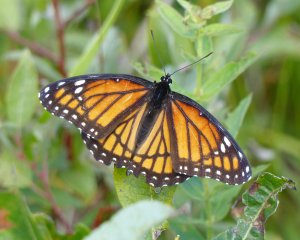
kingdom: Animalia
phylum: Arthropoda
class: Insecta
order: Lepidoptera
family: Nymphalidae
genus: Limenitis
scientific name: Limenitis archippus
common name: Viceroy
